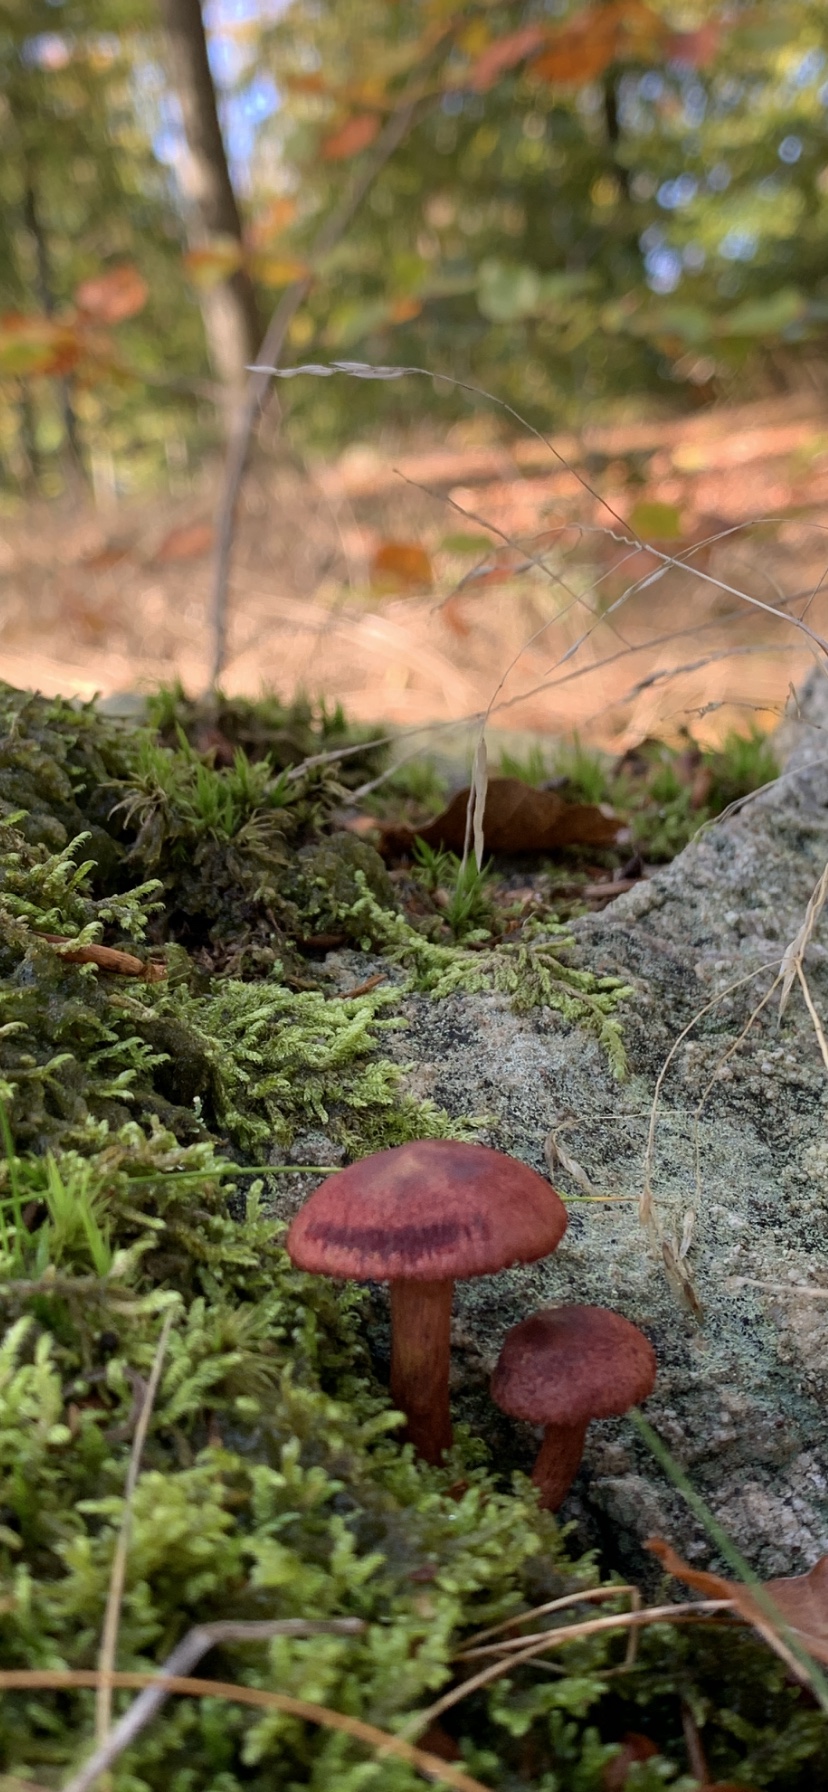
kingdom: Fungi
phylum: Basidiomycota
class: Agaricomycetes
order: Agaricales
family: Cortinariaceae
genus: Cortinarius
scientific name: Cortinarius sanguineus
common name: Bloodred webcap
